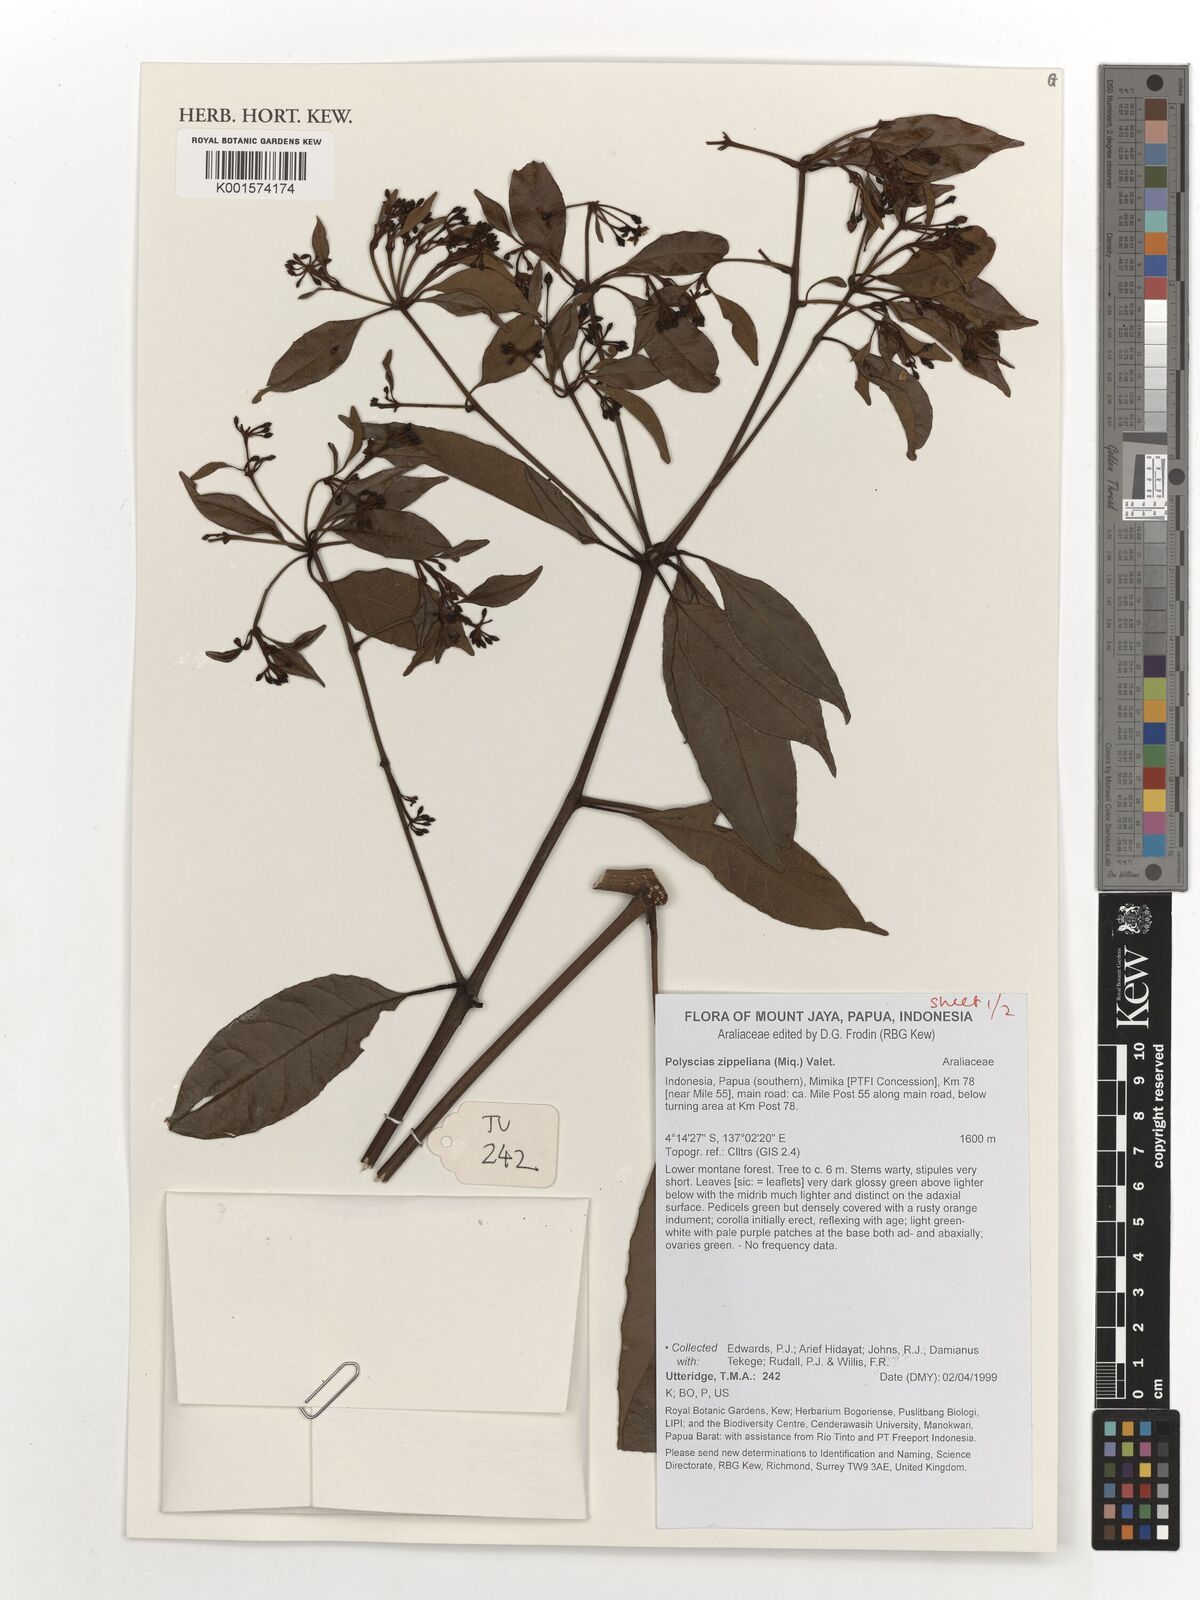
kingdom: Plantae
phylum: Tracheophyta
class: Magnoliopsida
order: Apiales
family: Araliaceae
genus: Polyscias
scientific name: Polyscias zippeliana
